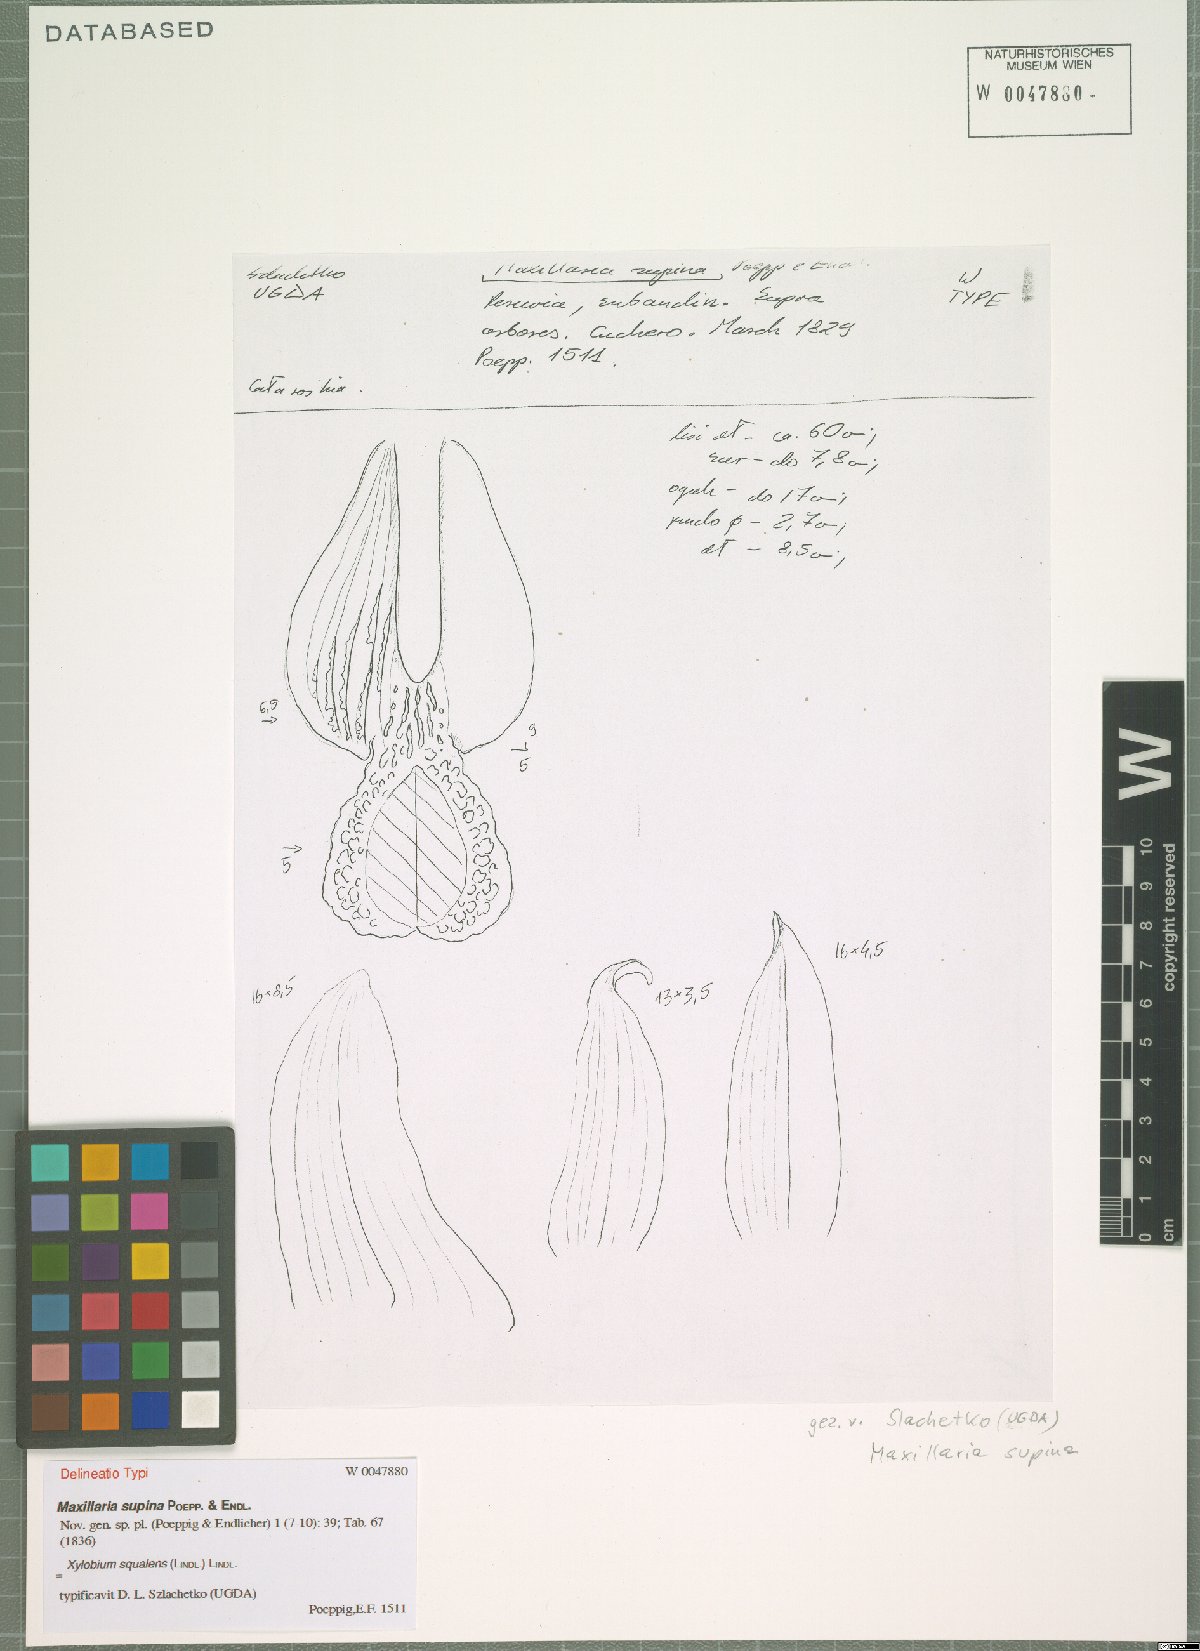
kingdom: Plantae
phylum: Tracheophyta
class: Liliopsida
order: Asparagales
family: Orchidaceae
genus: Xylobium
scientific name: Xylobium squalens
